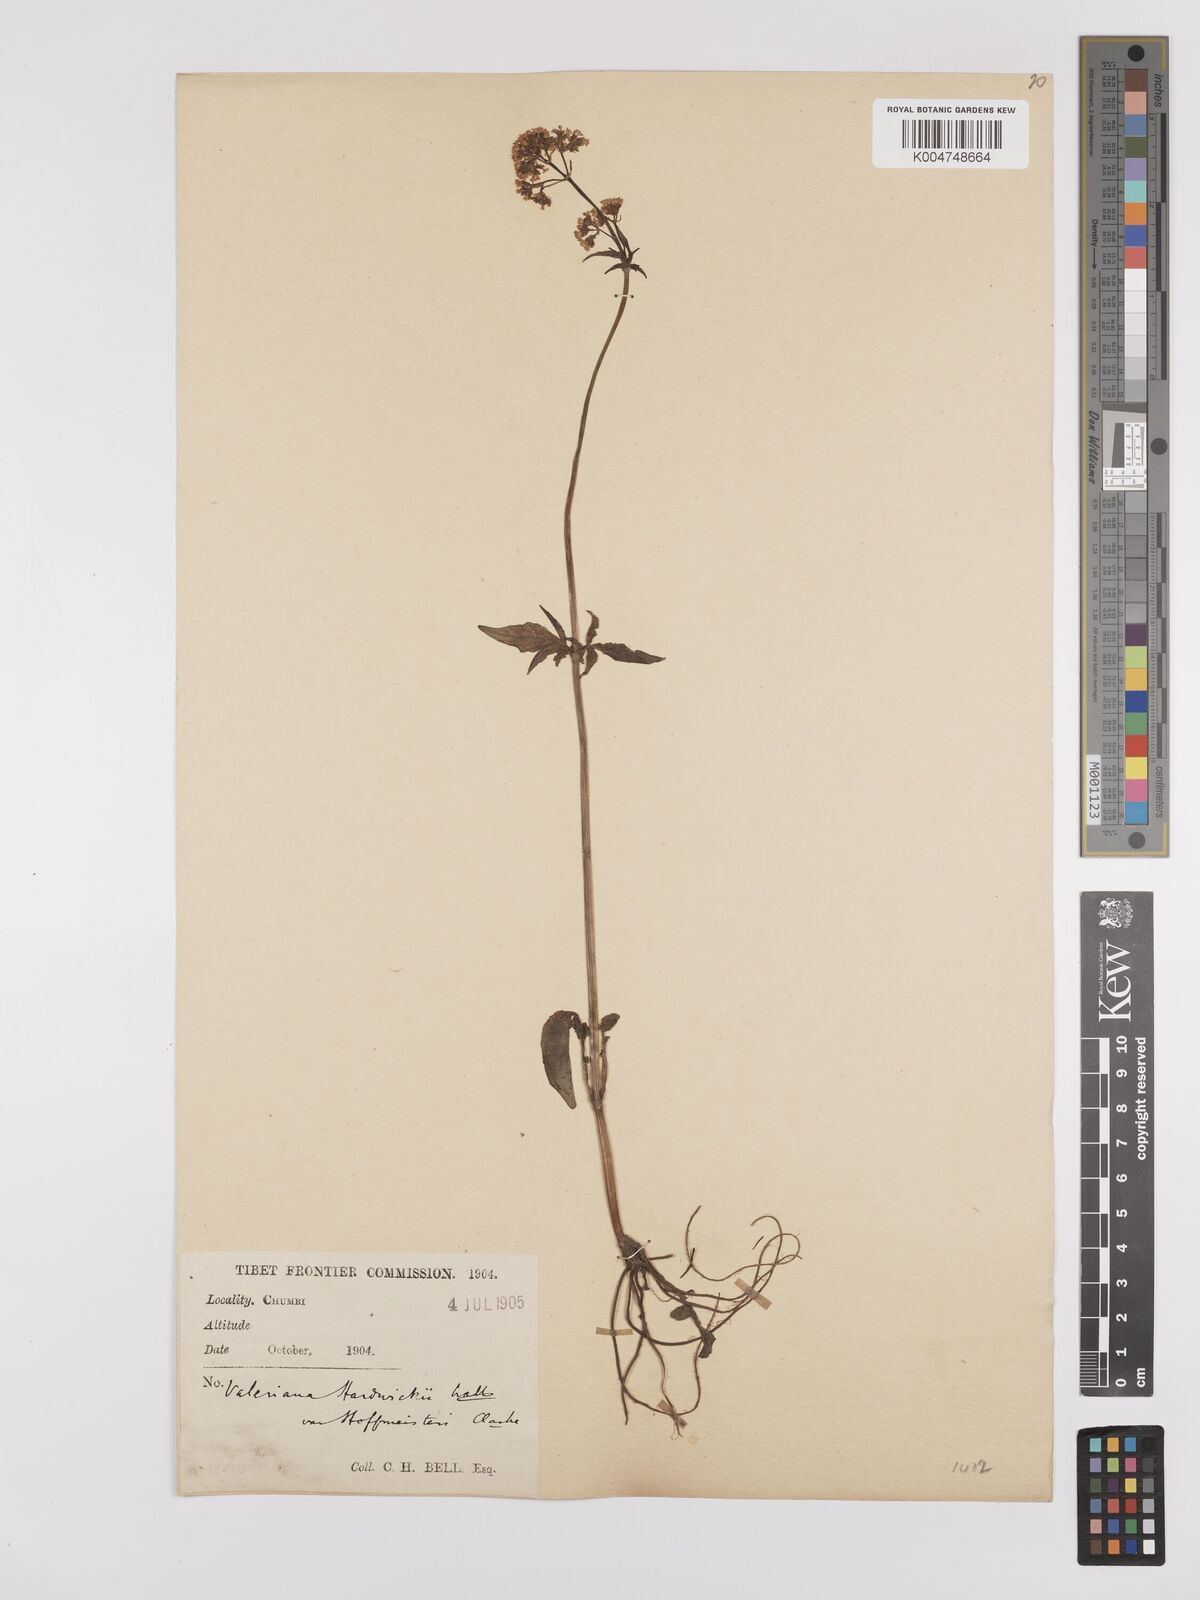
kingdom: Plantae
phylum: Tracheophyta
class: Magnoliopsida
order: Dipsacales
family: Caprifoliaceae
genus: Valeriana
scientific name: Valeriana hardwickei
